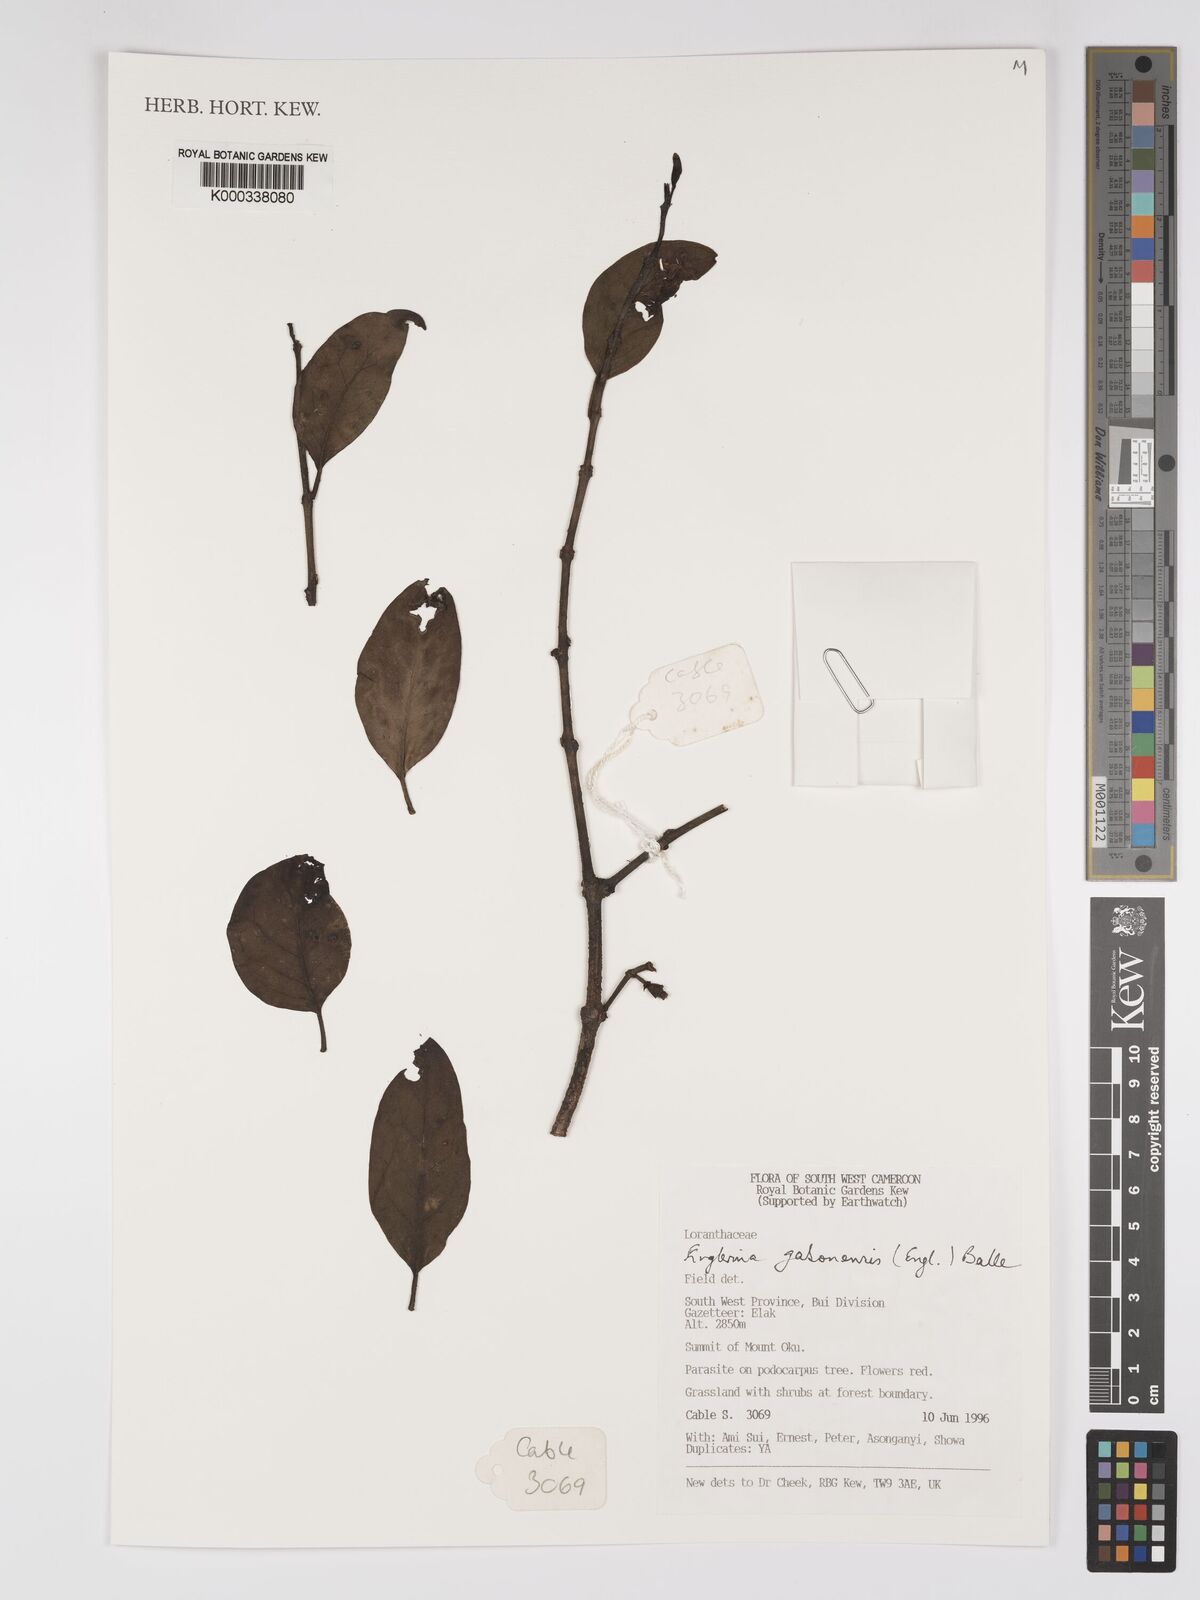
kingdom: Plantae
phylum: Tracheophyta
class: Magnoliopsida
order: Santalales
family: Loranthaceae
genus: Englerina
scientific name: Englerina gabonensis
